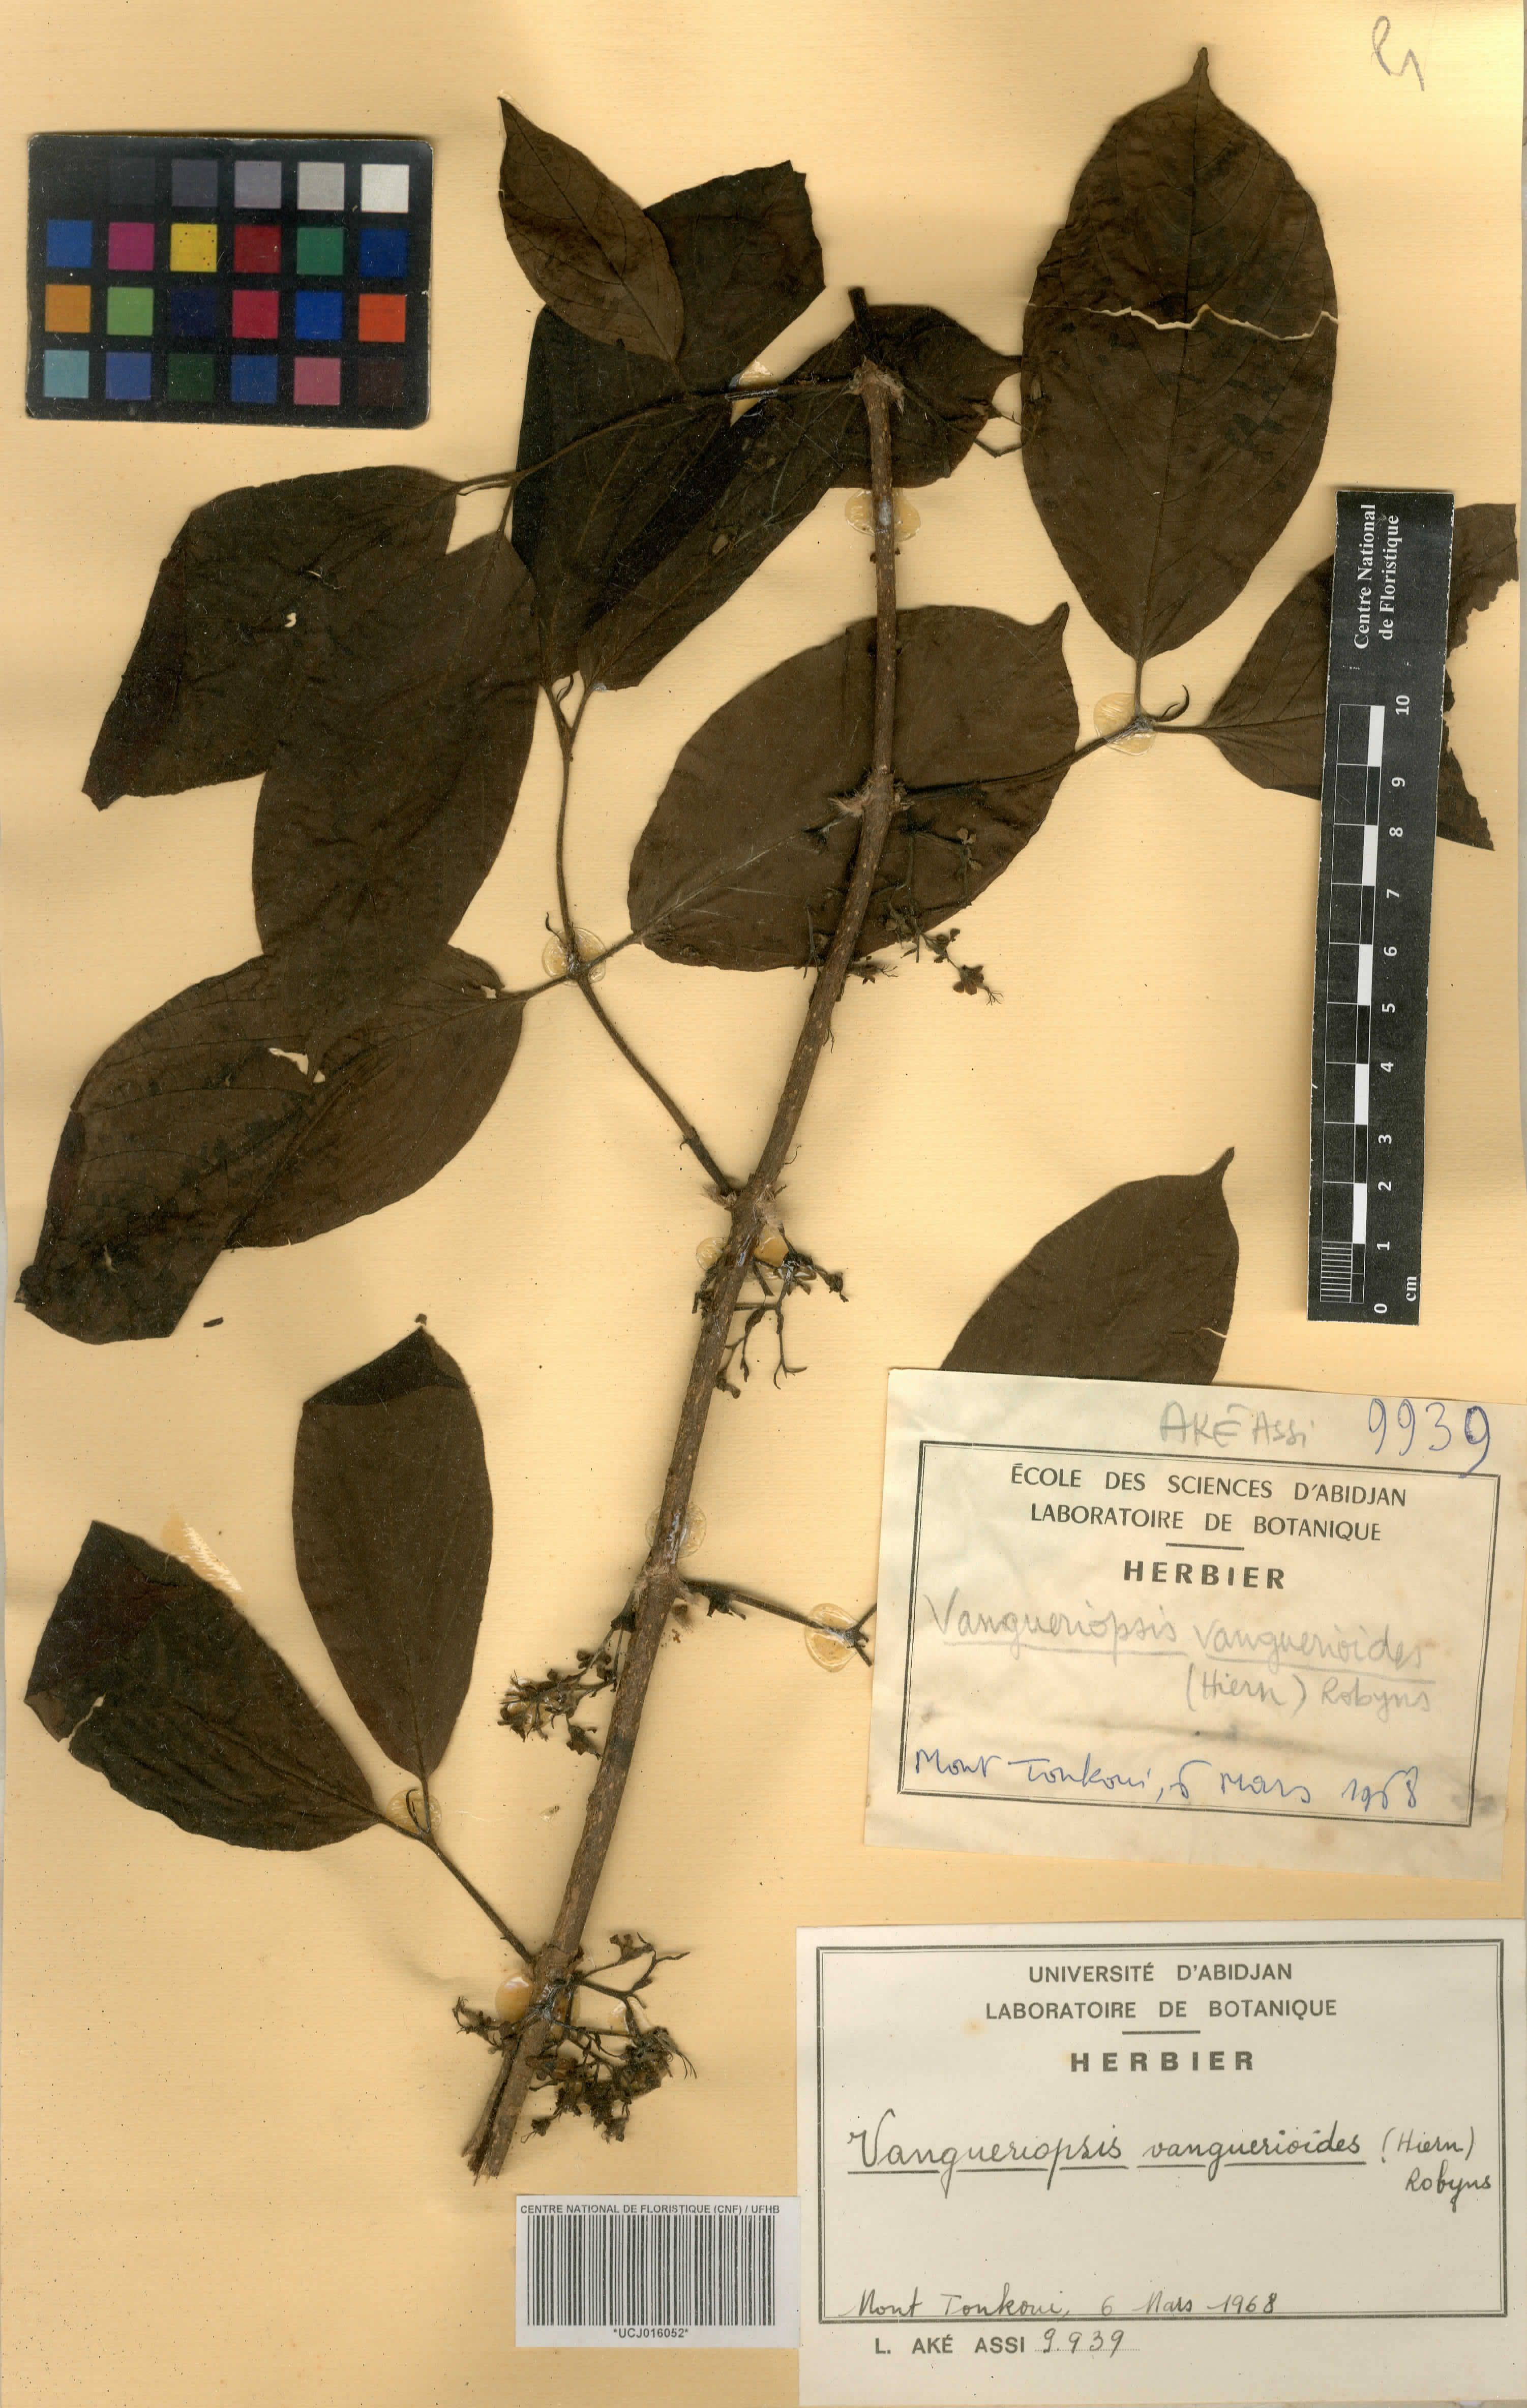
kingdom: Plantae
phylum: Tracheophyta
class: Magnoliopsida
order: Gentianales
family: Rubiaceae
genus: Vangueriella
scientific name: Vangueriella vanguerioides
